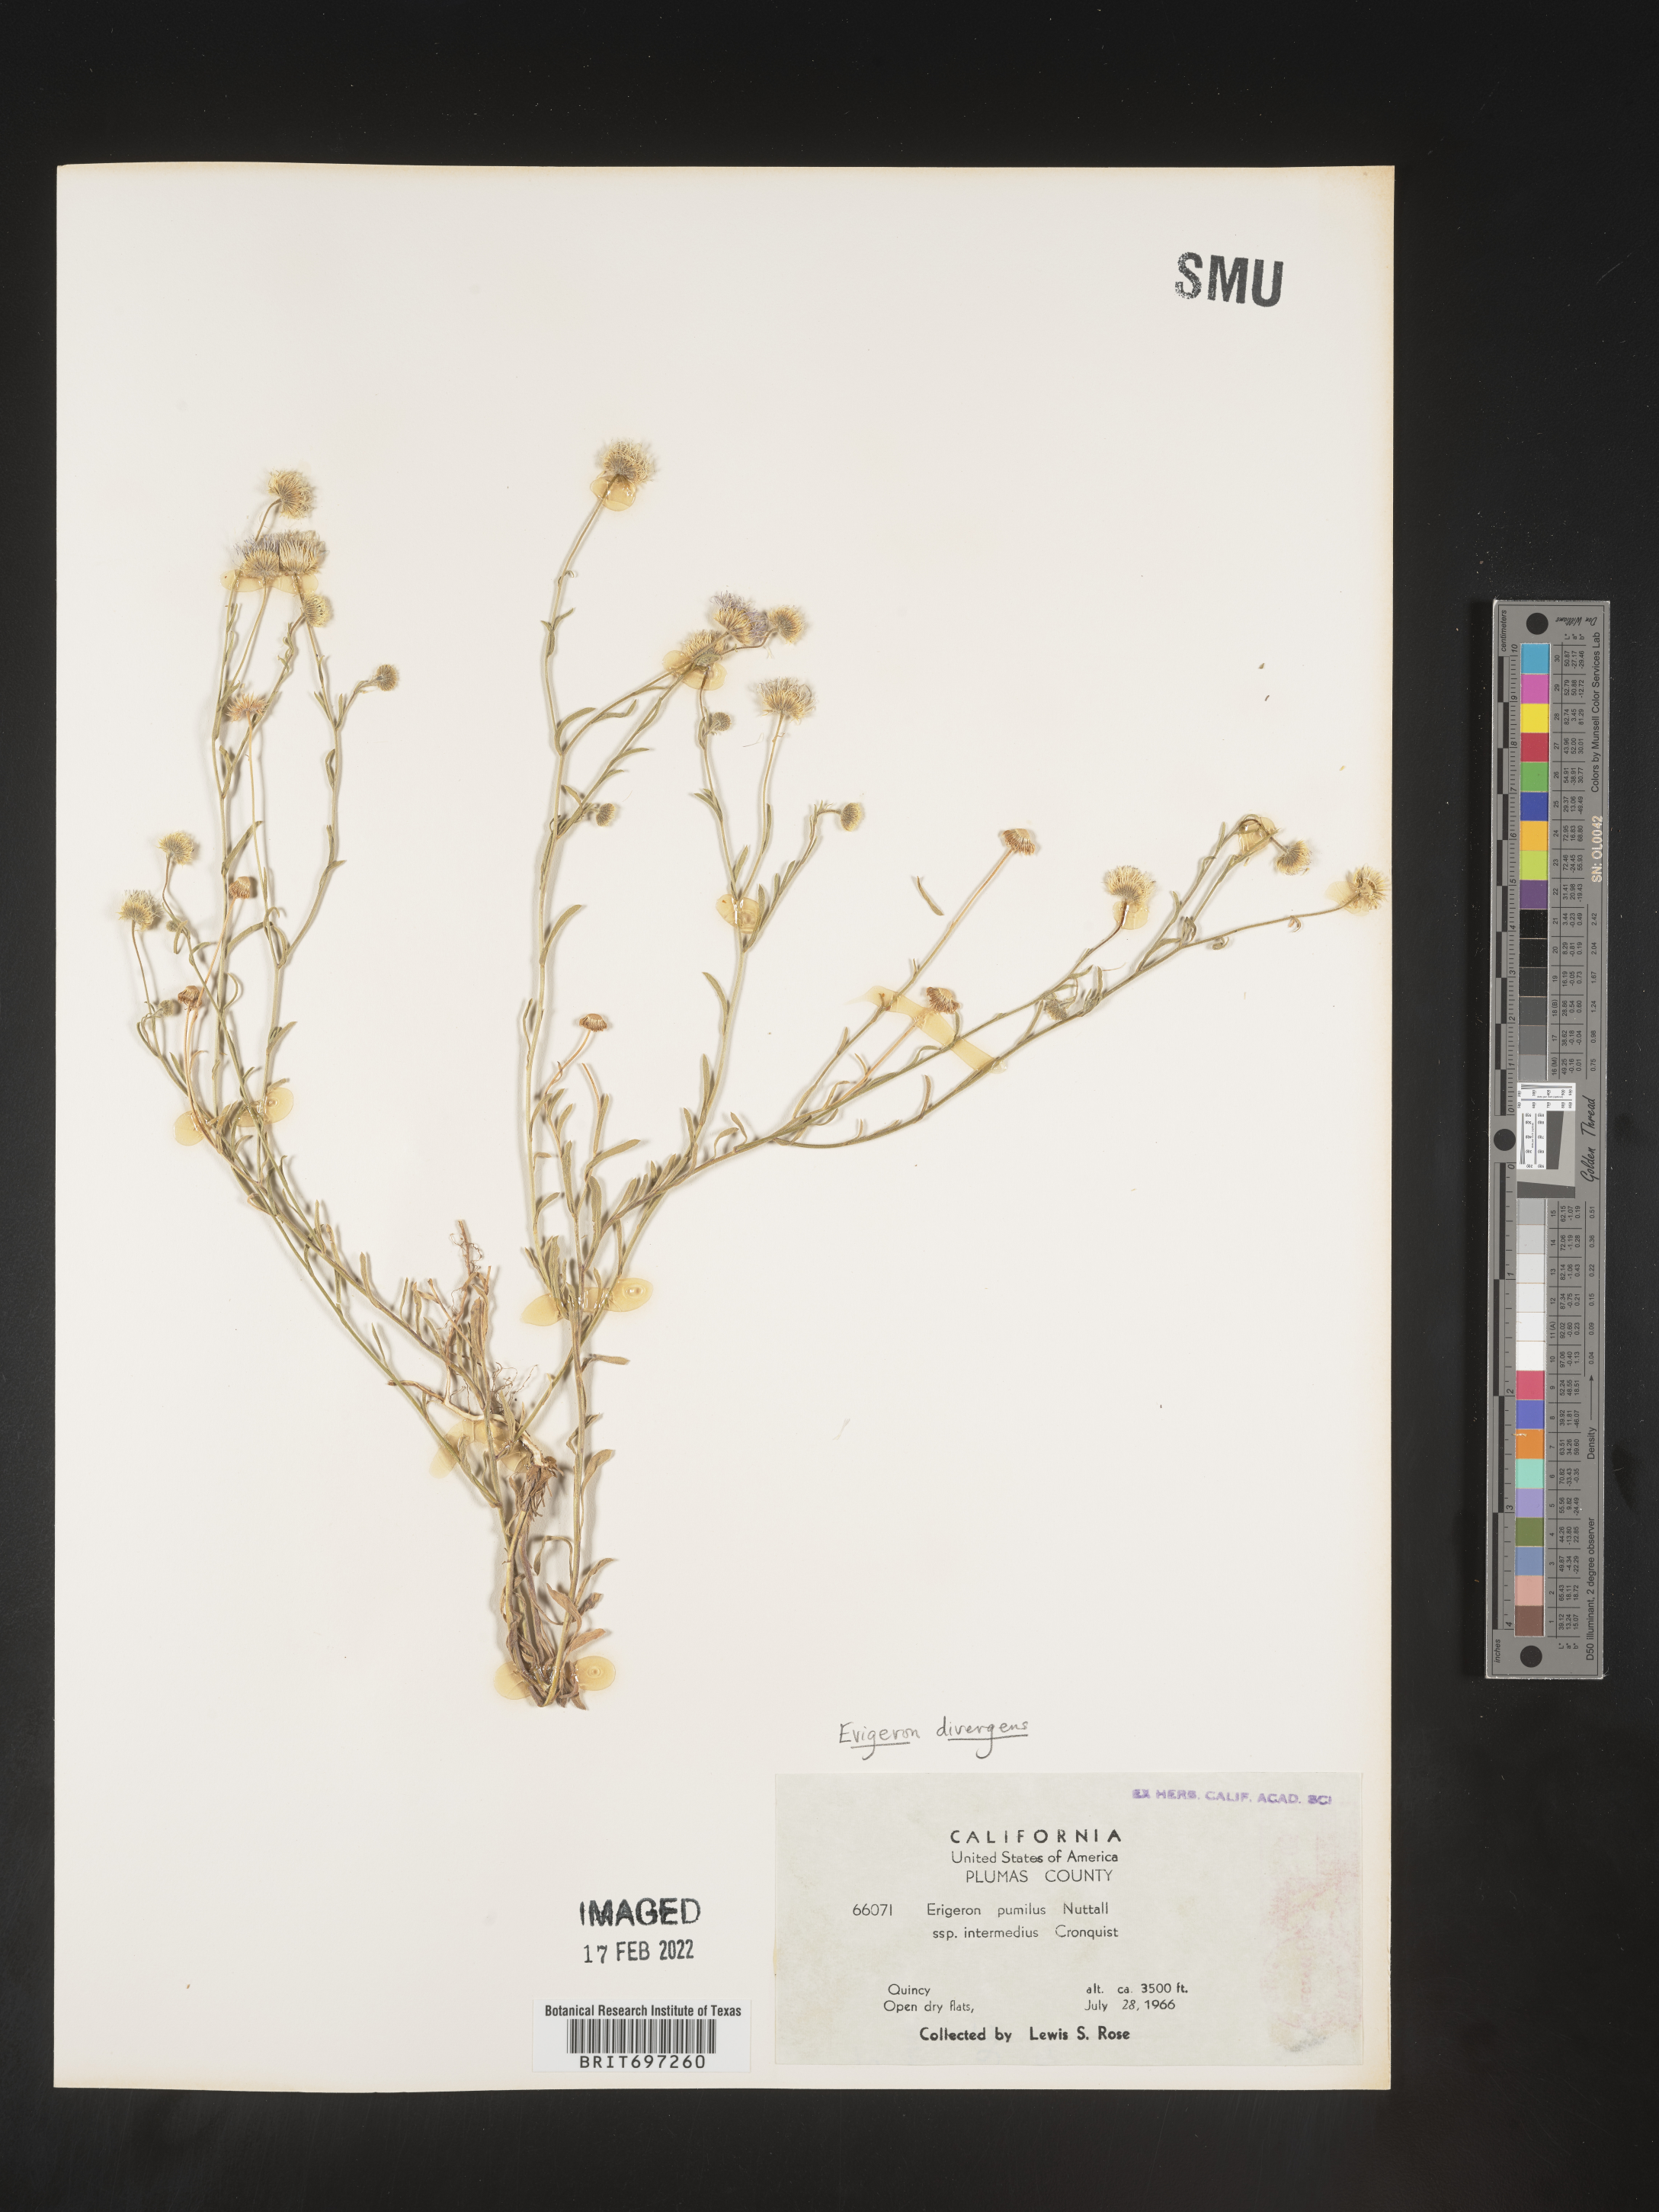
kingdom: Plantae
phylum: Tracheophyta
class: Magnoliopsida
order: Asterales
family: Asteraceae
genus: Erigeron
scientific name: Erigeron divergens
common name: Diffuse fleabane
